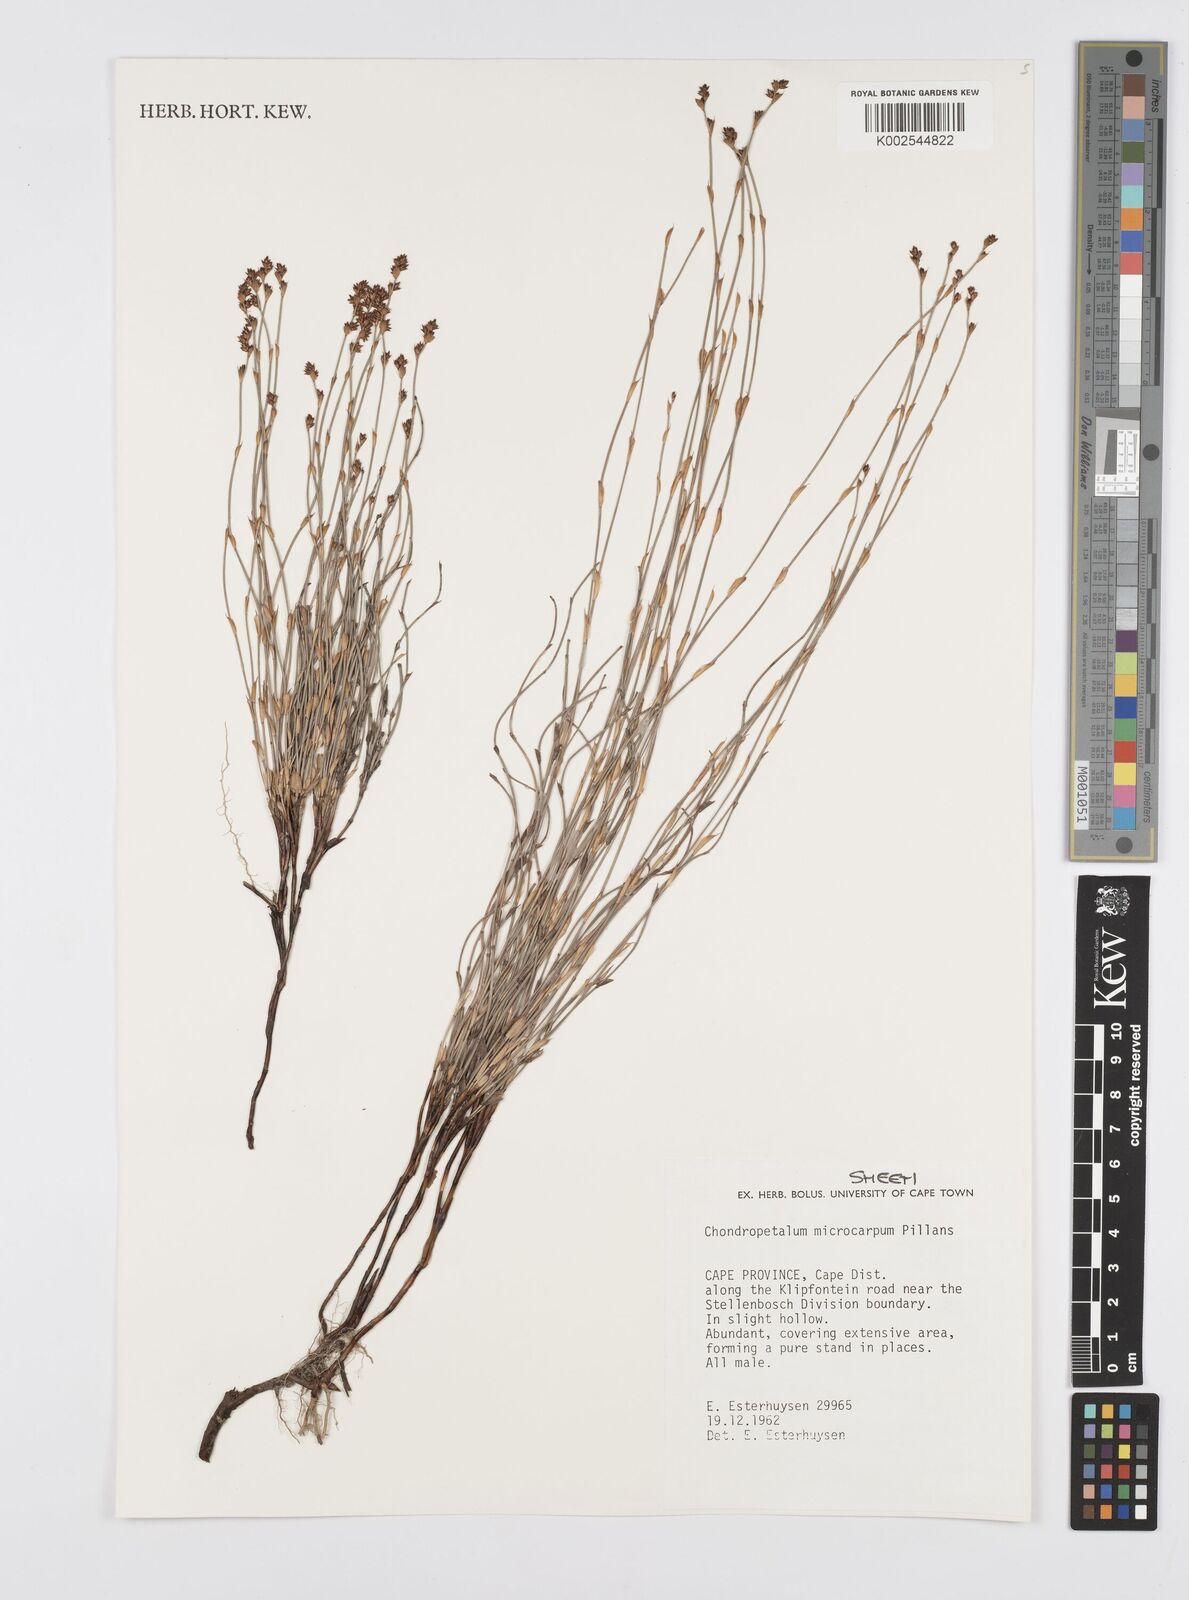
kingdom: Plantae
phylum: Tracheophyta
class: Liliopsida
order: Poales
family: Restionaceae
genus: Elegia
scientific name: Elegia microcarpa
